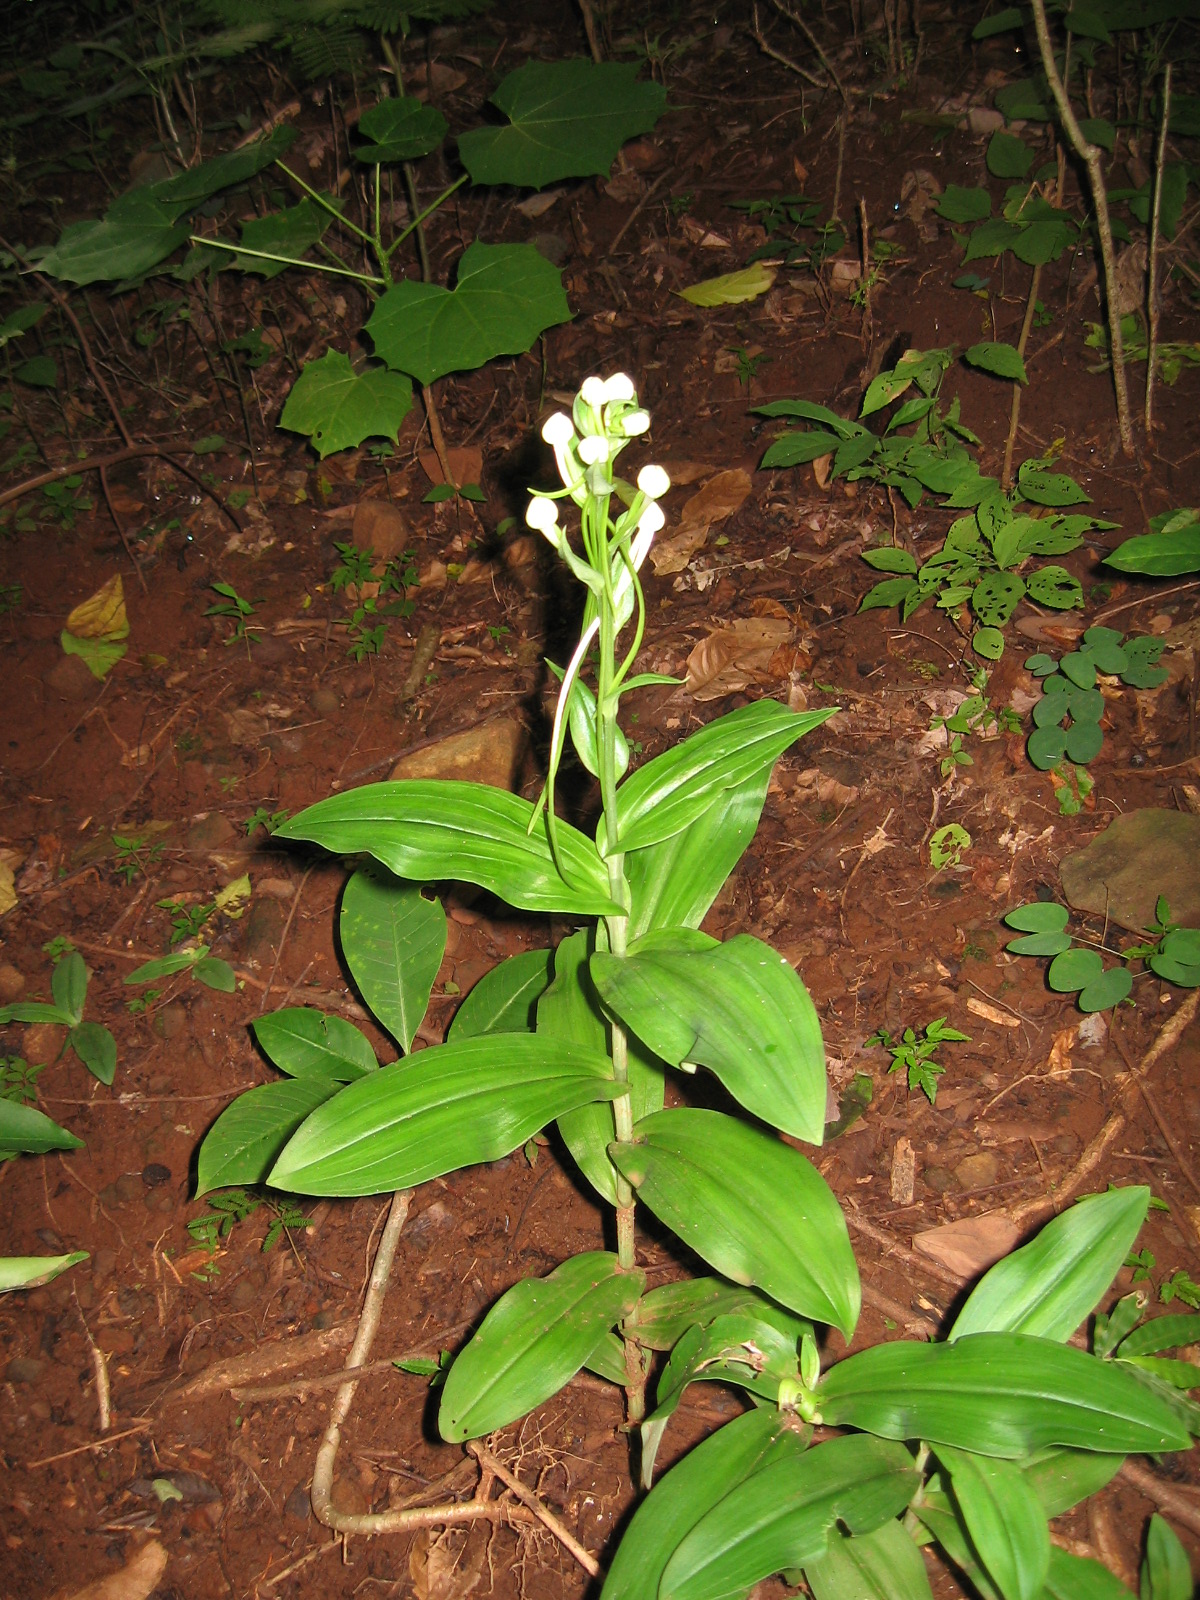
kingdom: Plantae
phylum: Tracheophyta
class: Liliopsida
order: Asparagales
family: Orchidaceae
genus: Habenaria
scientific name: Habenaria
